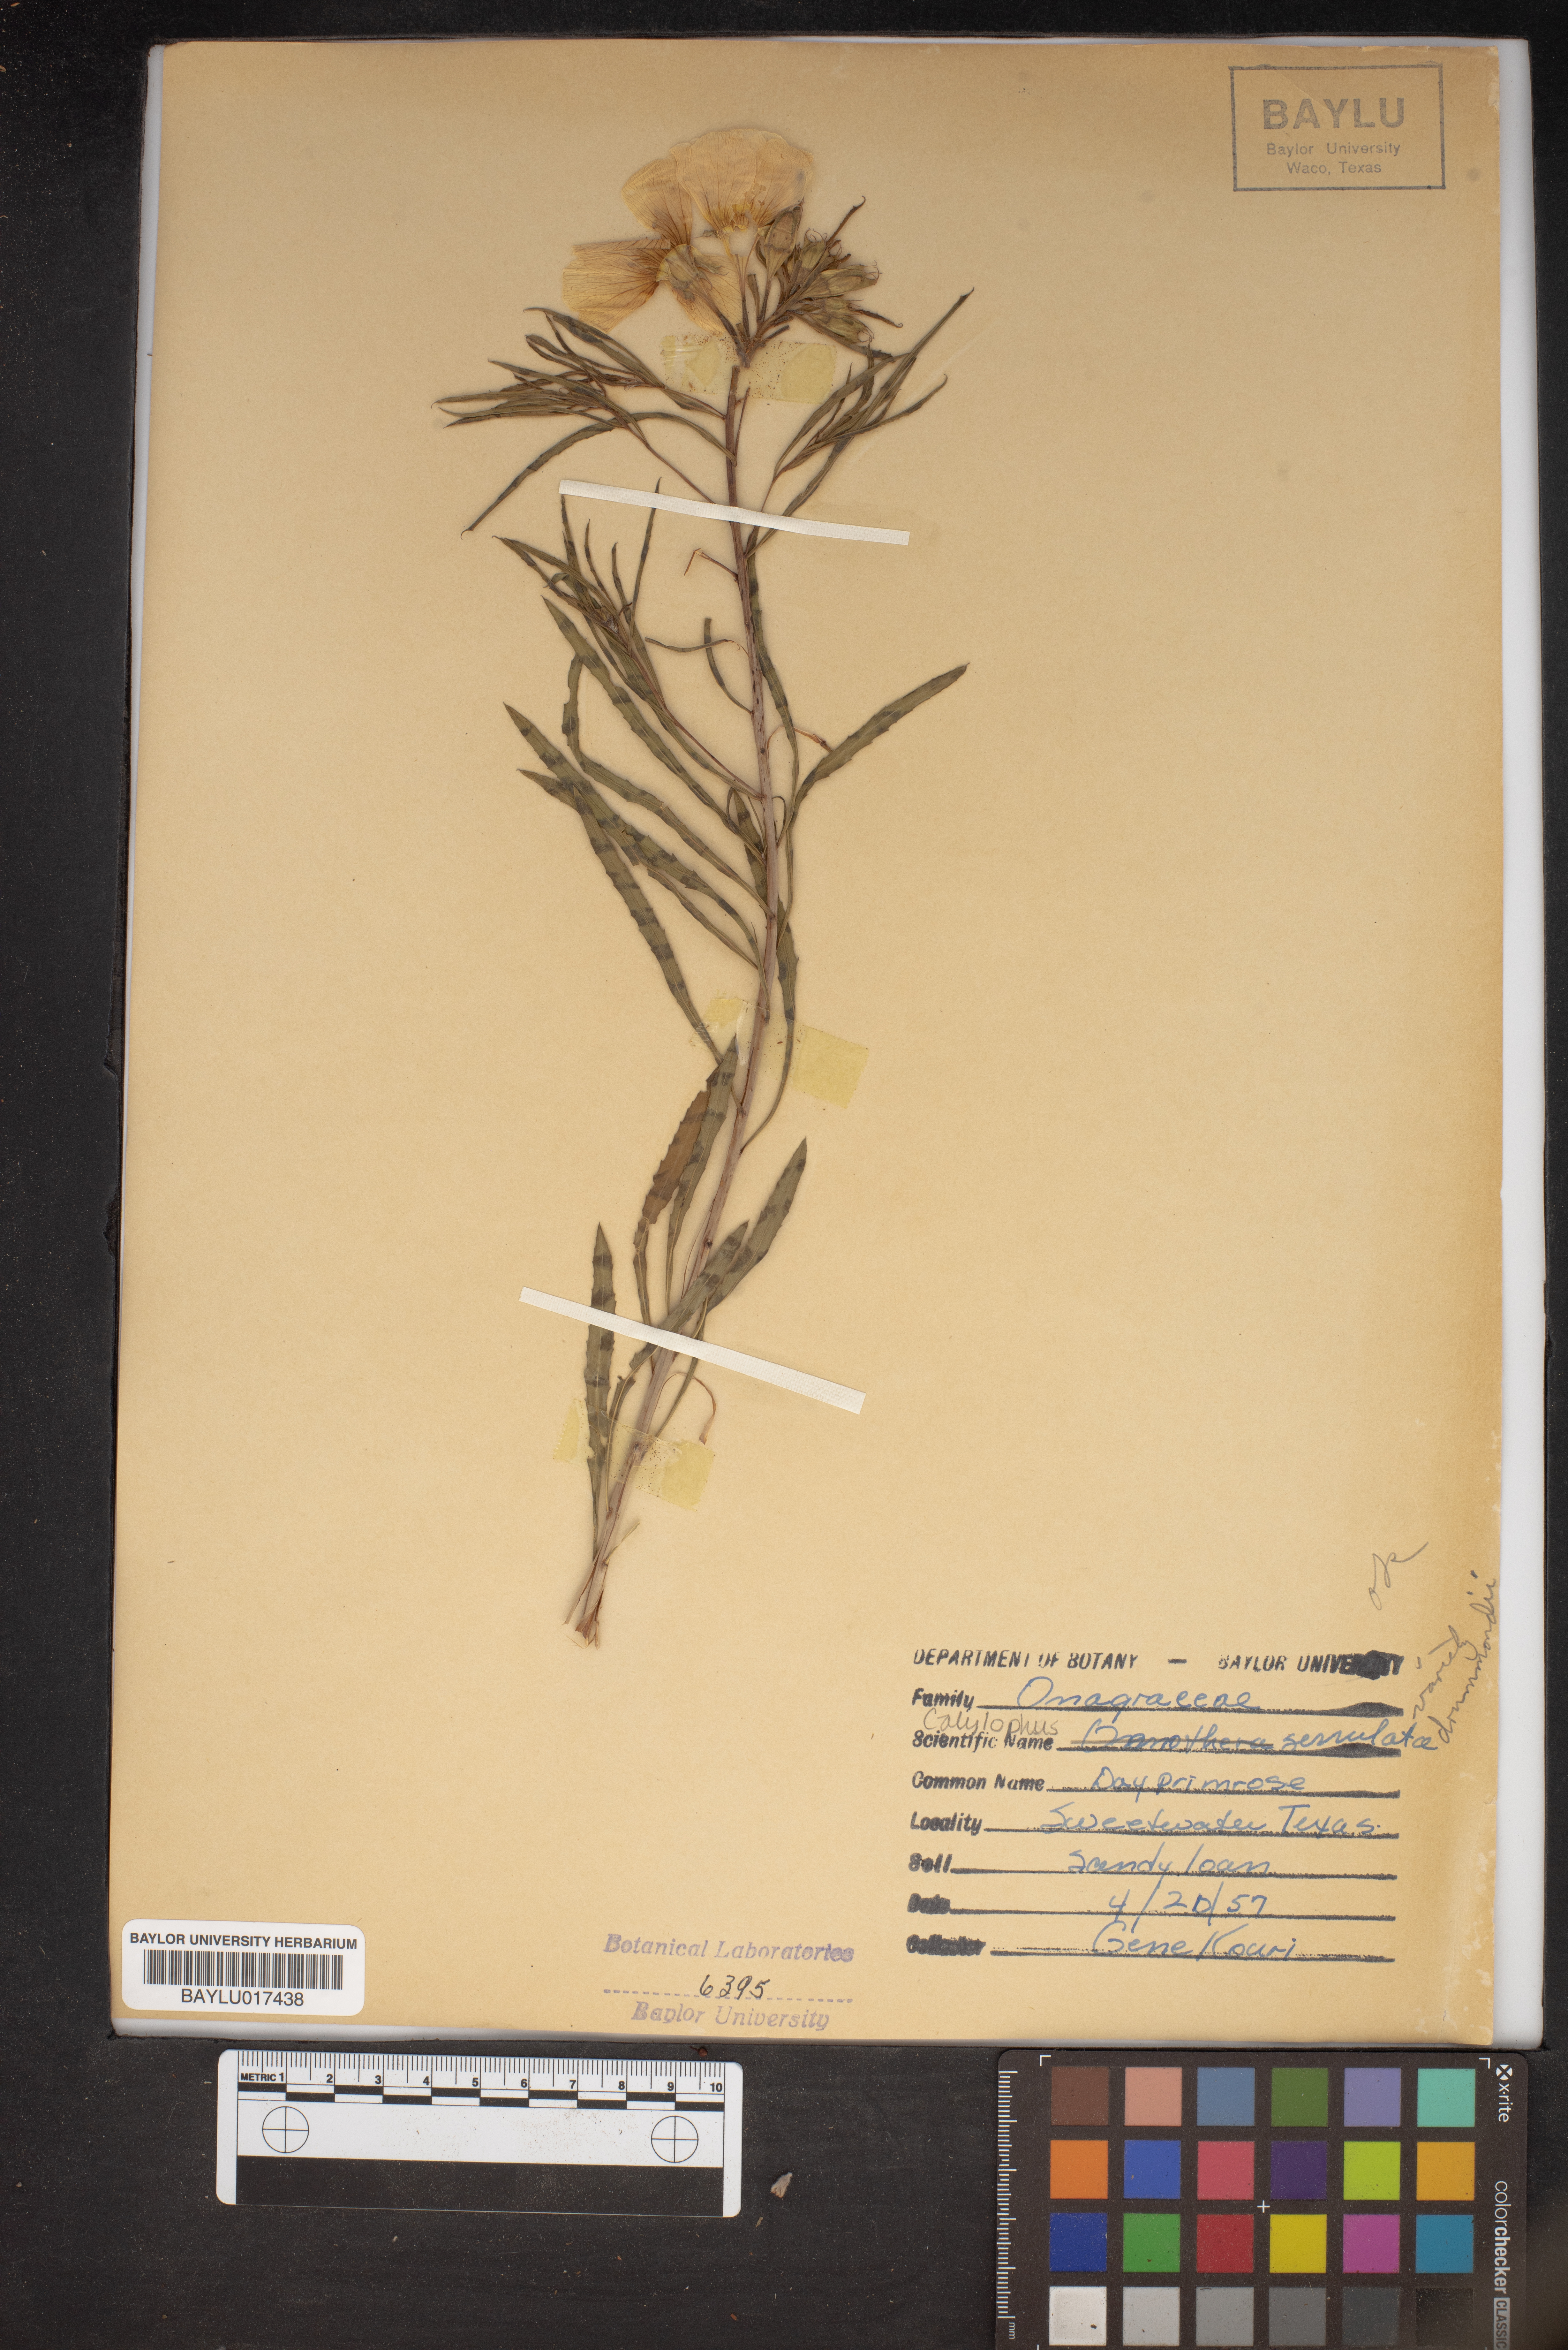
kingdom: Plantae
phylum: Tracheophyta
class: Magnoliopsida
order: Myrtales
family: Onagraceae
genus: Oenothera
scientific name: Oenothera serrulata
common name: Half-shrub calylophus
